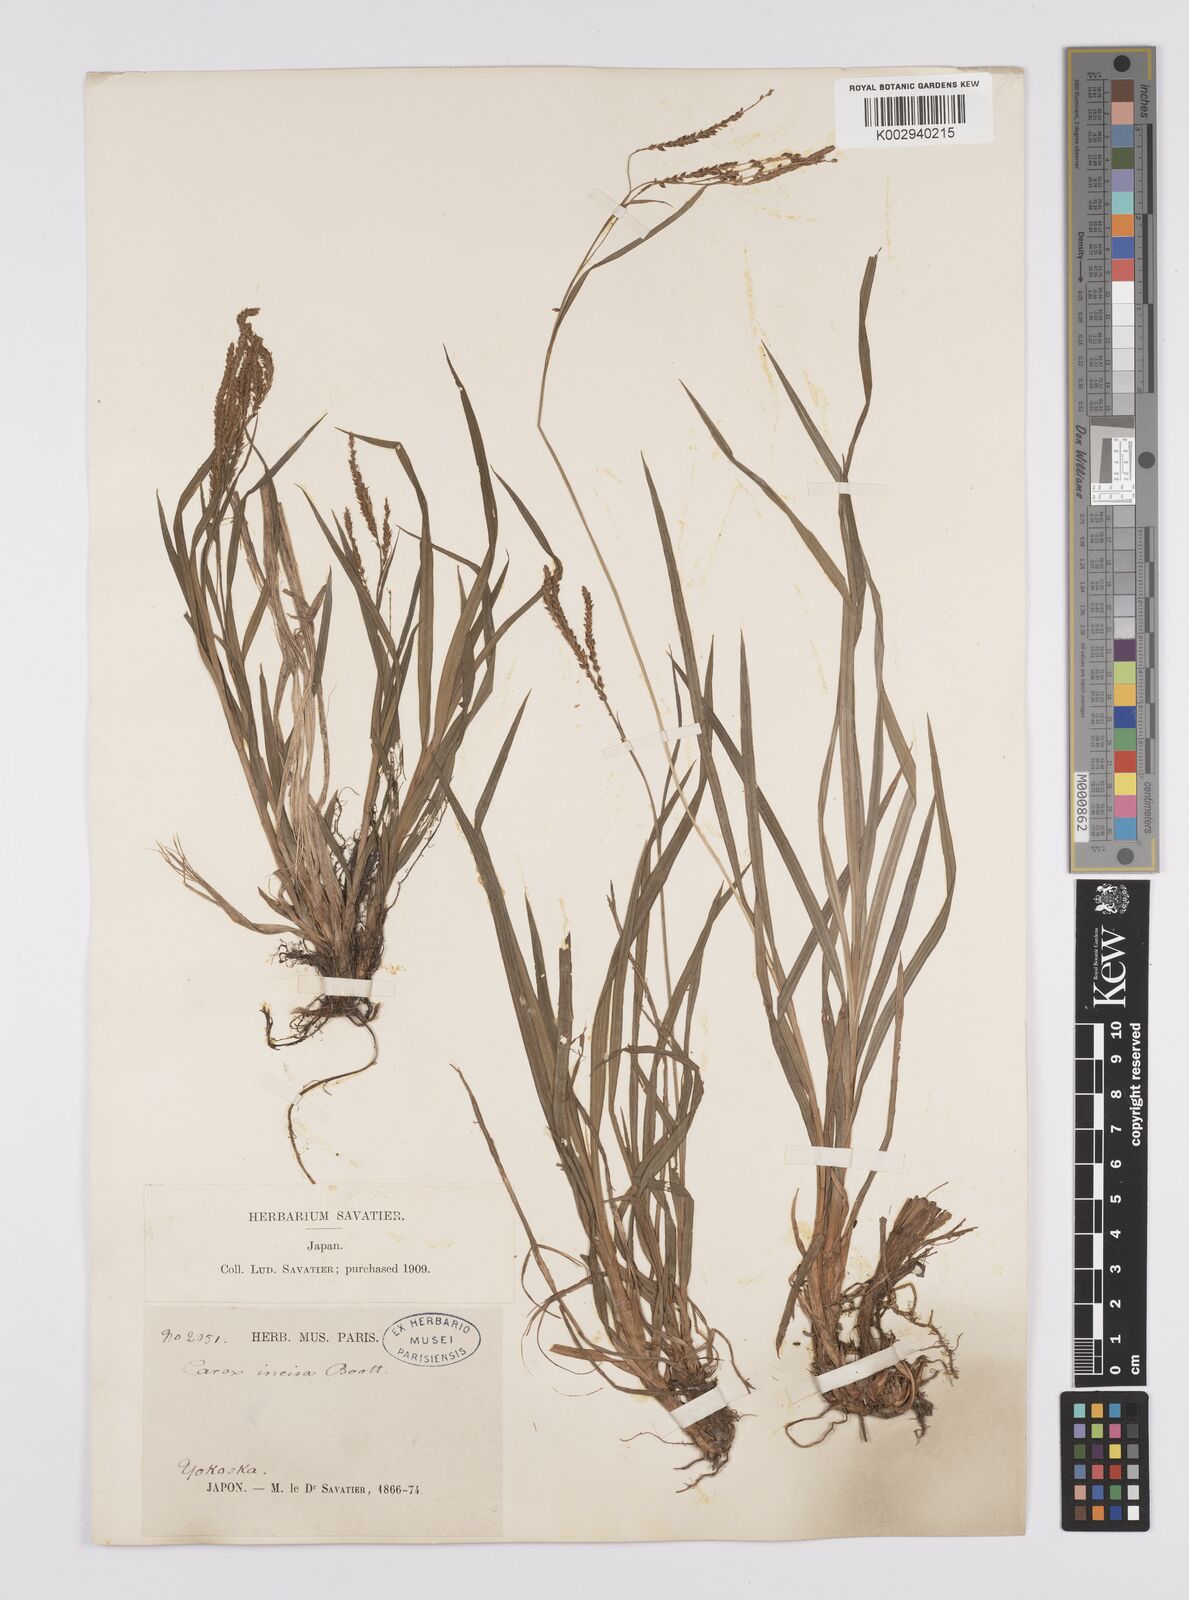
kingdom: Plantae
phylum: Tracheophyta
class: Liliopsida
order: Poales
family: Cyperaceae
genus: Carex
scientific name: Carex incisa
